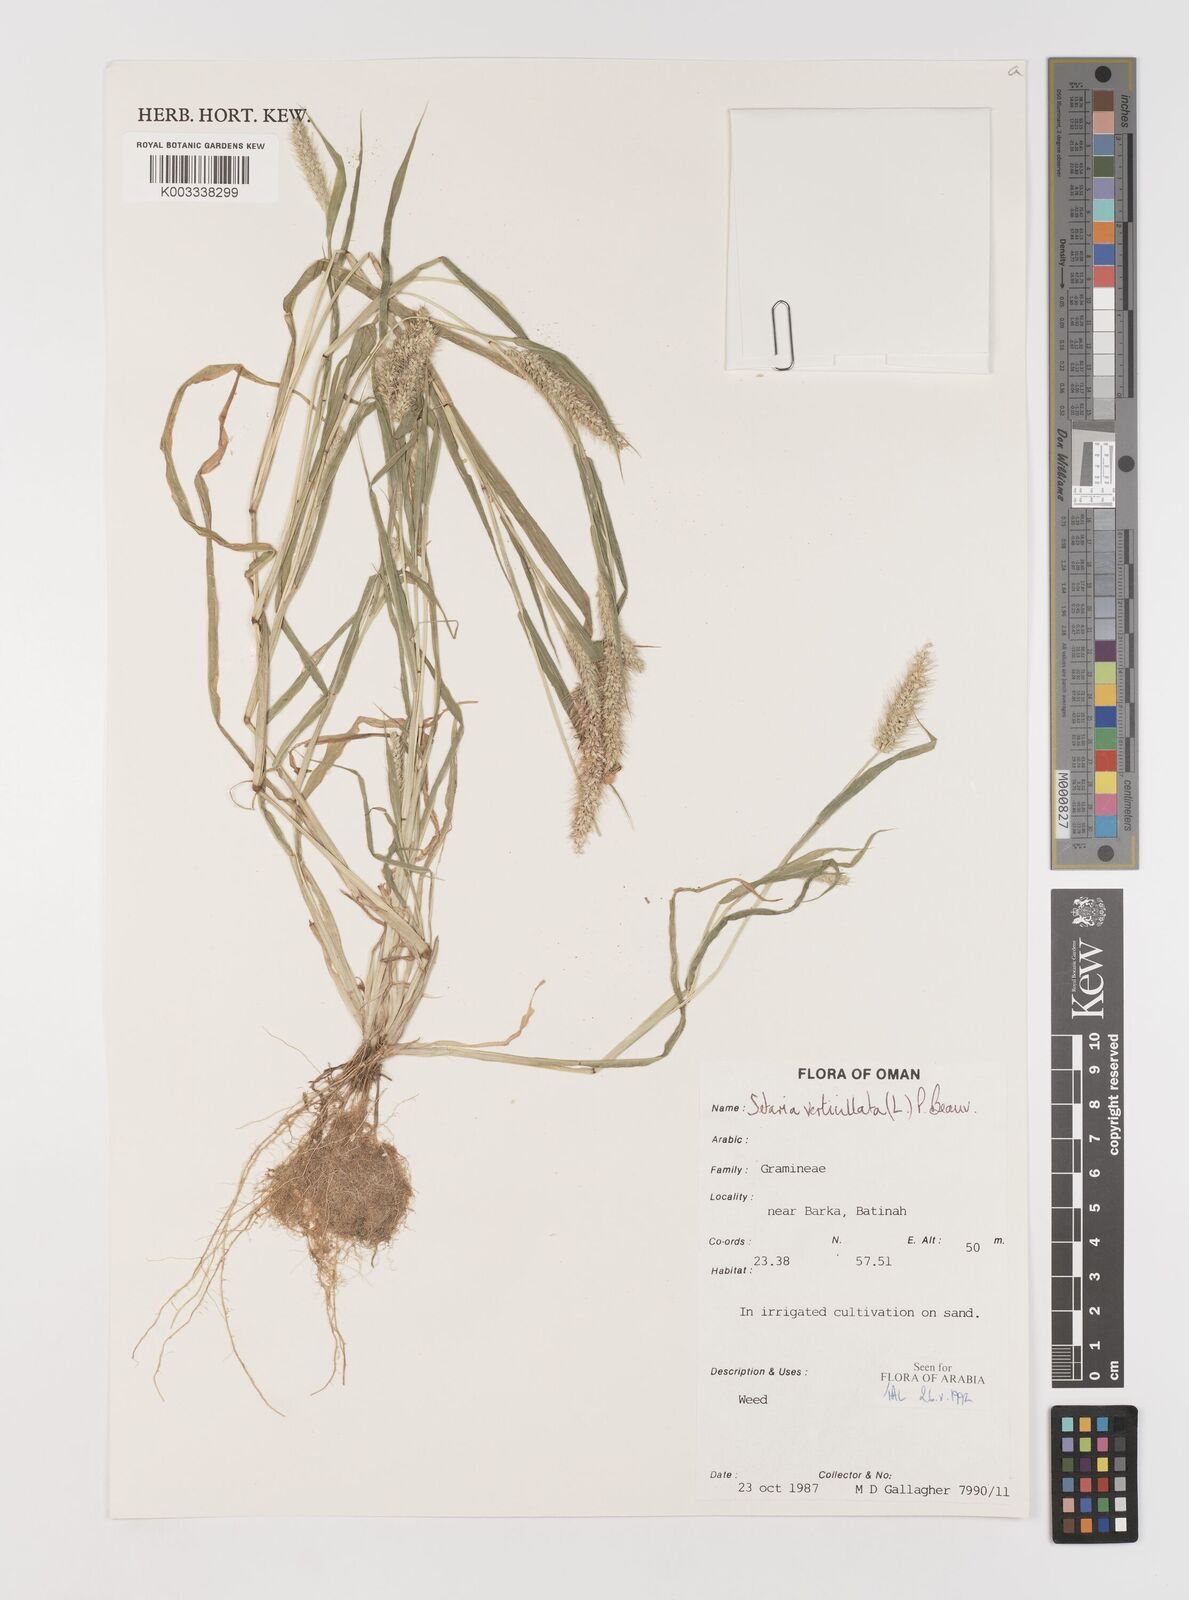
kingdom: Plantae
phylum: Tracheophyta
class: Liliopsida
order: Poales
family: Poaceae
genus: Setaria
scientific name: Setaria verticillata
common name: Hooked bristlegrass
